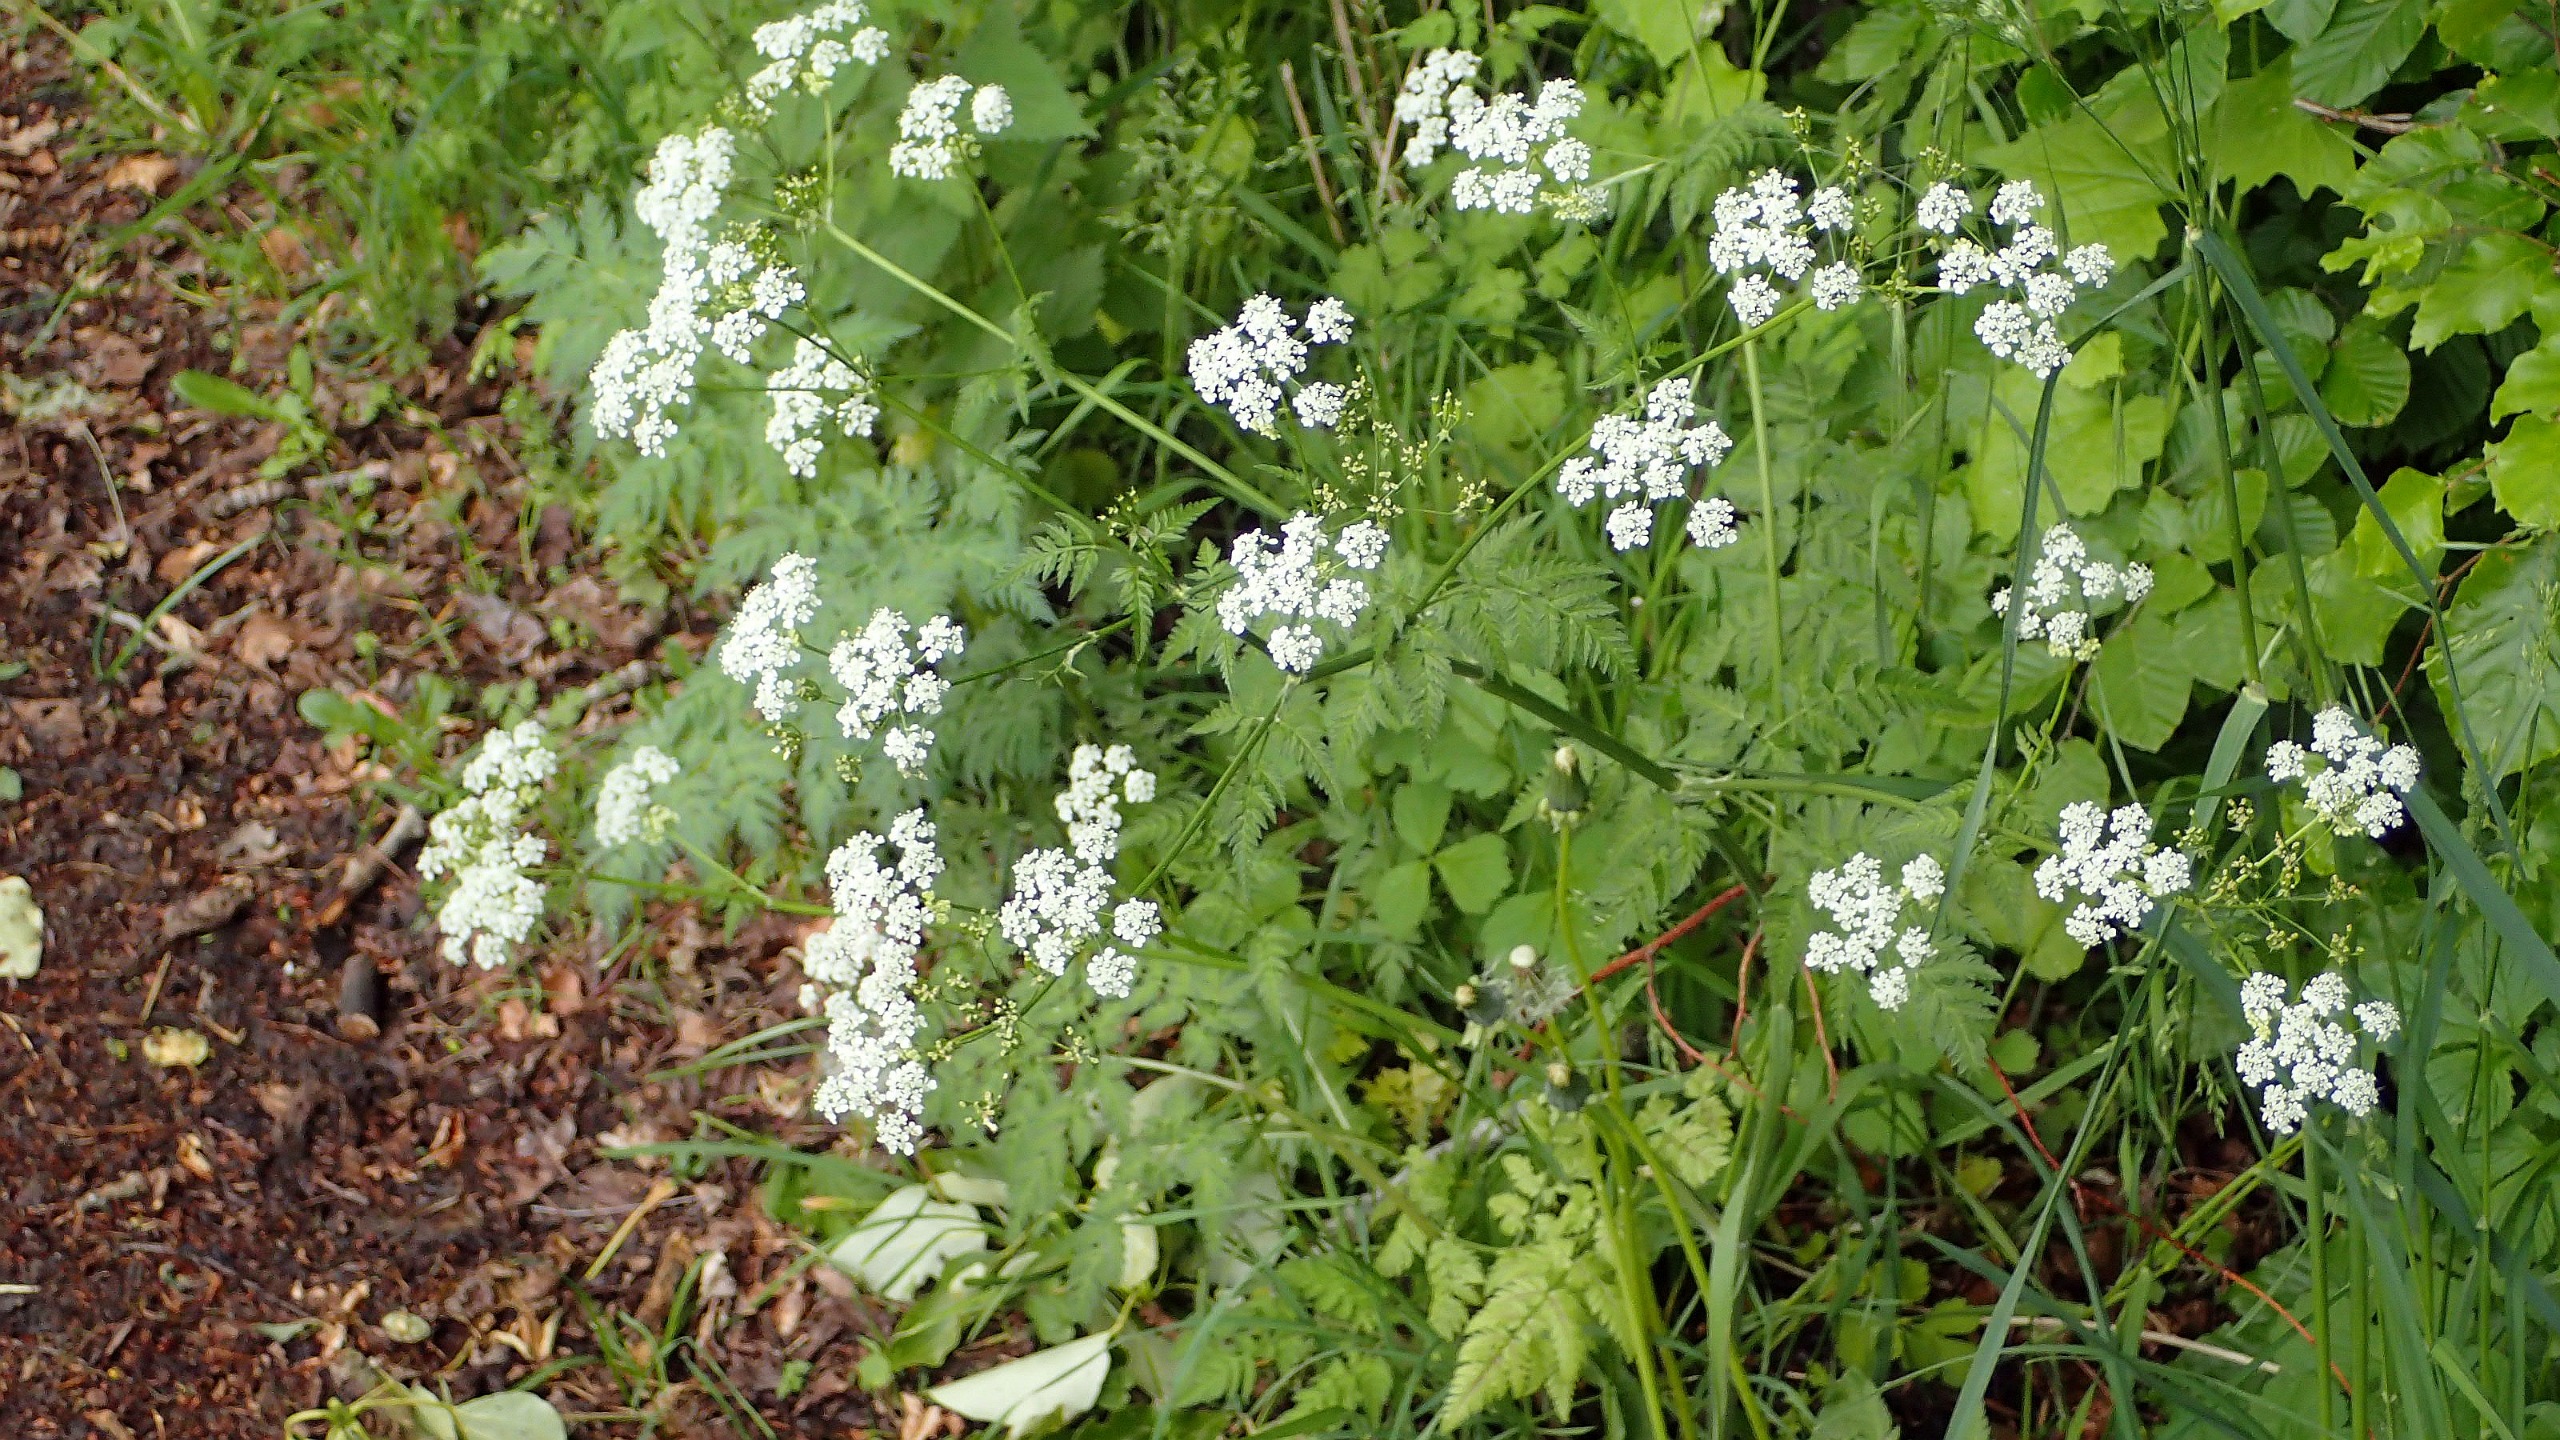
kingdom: Plantae
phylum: Tracheophyta
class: Magnoliopsida
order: Apiales
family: Apiaceae
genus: Anthriscus
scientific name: Anthriscus sylvestris
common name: Vild kørvel
